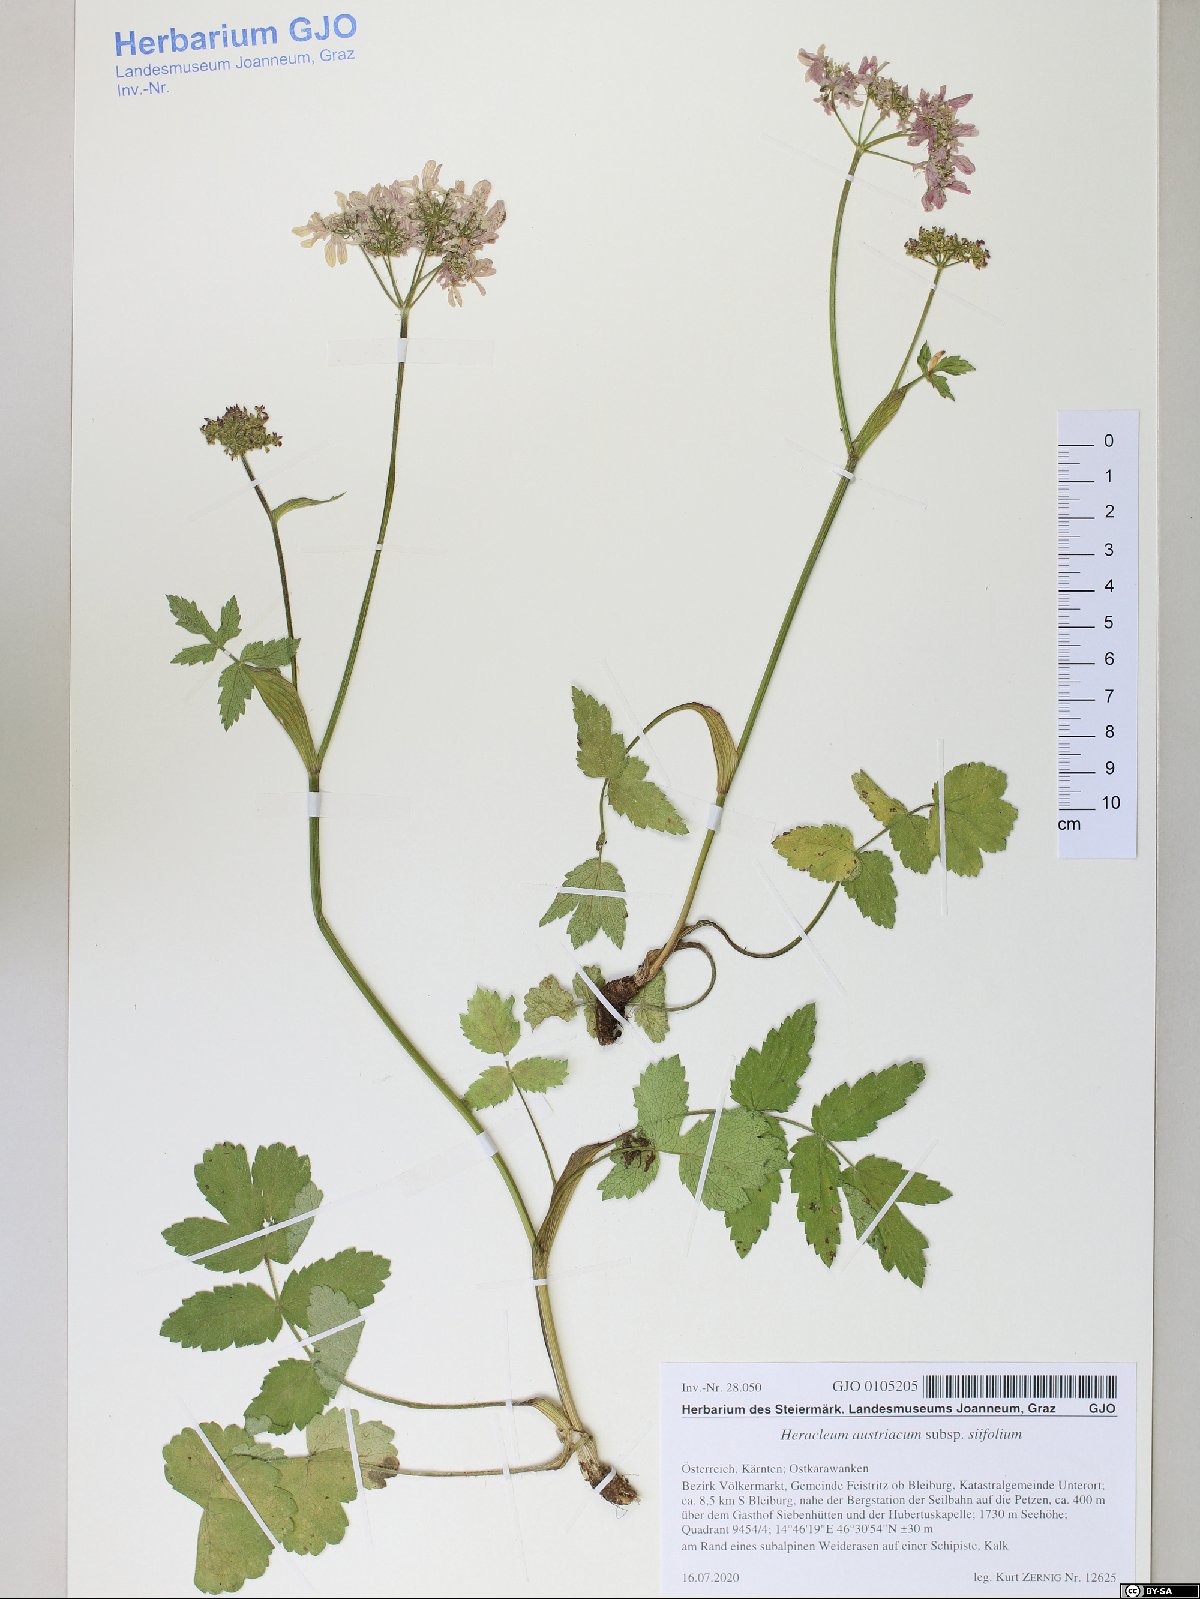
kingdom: Plantae
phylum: Tracheophyta
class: Magnoliopsida
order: Apiales
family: Apiaceae
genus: Heracleum
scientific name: Heracleum austriacum
